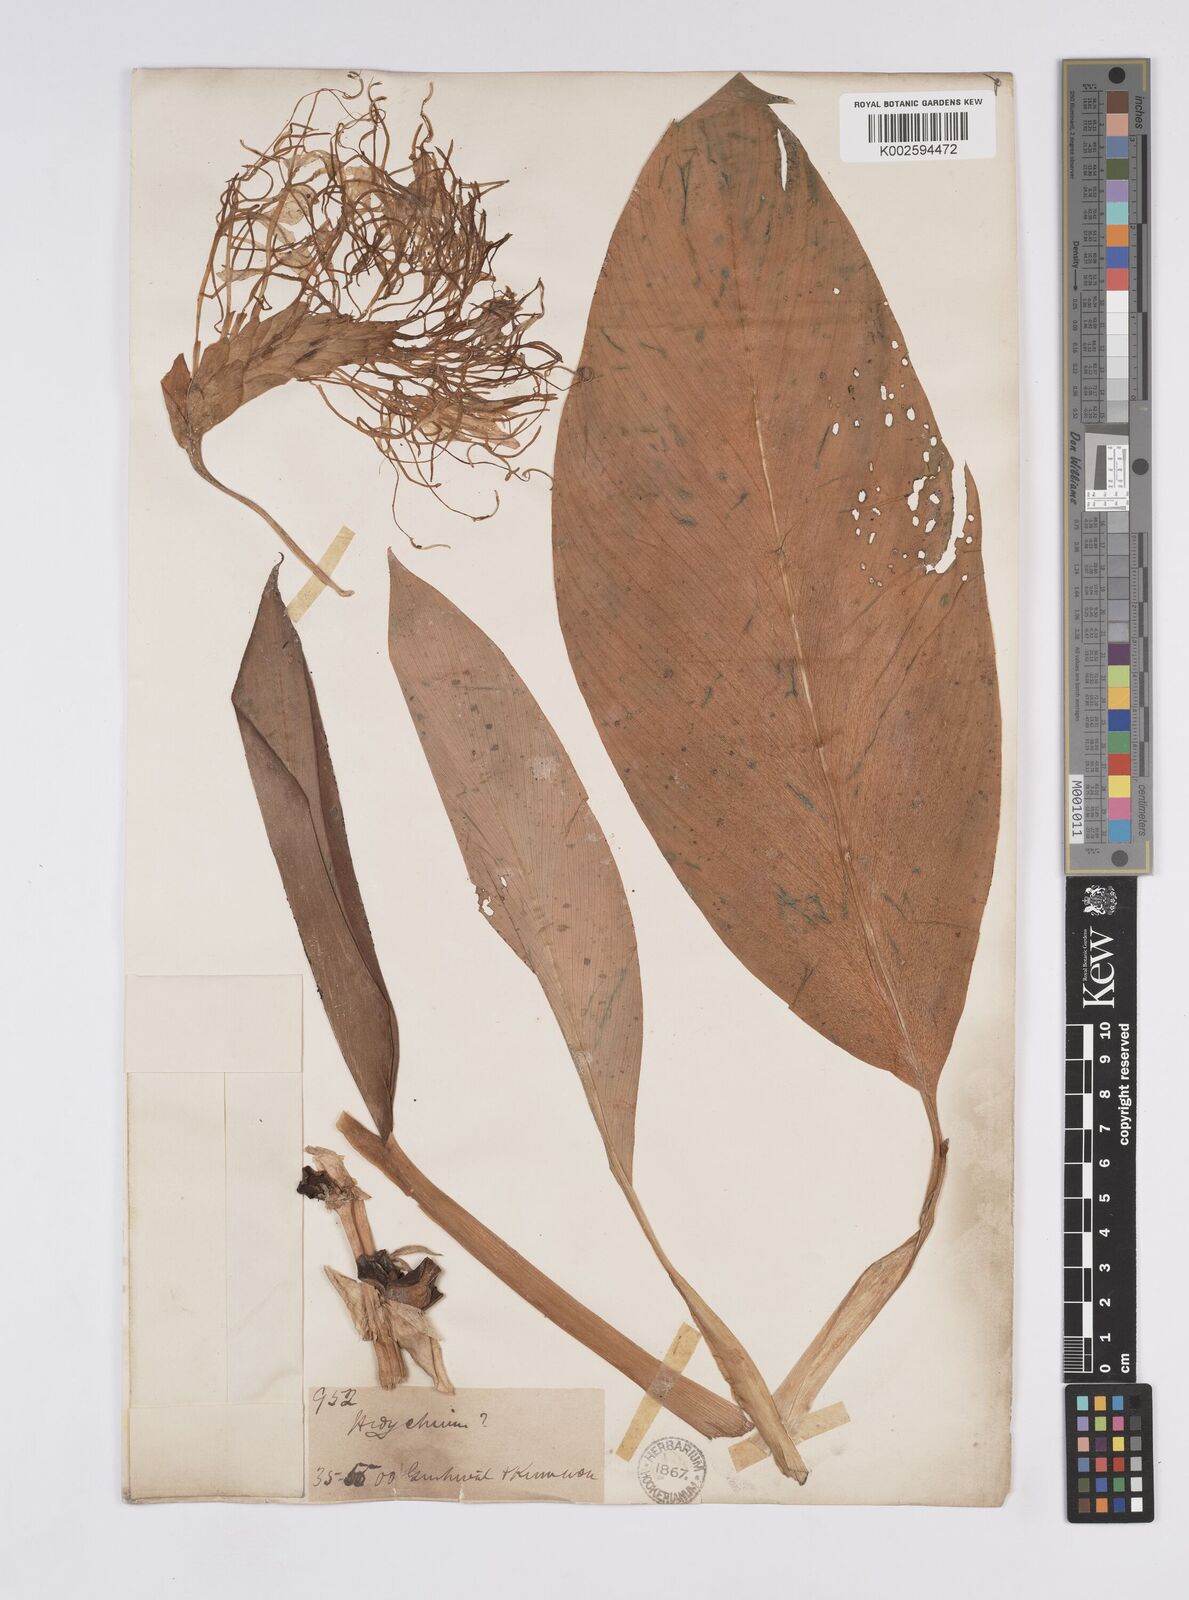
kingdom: Plantae
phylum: Tracheophyta
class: Liliopsida
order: Zingiberales
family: Zingiberaceae
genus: Hedychium
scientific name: Hedychium ellipticum
